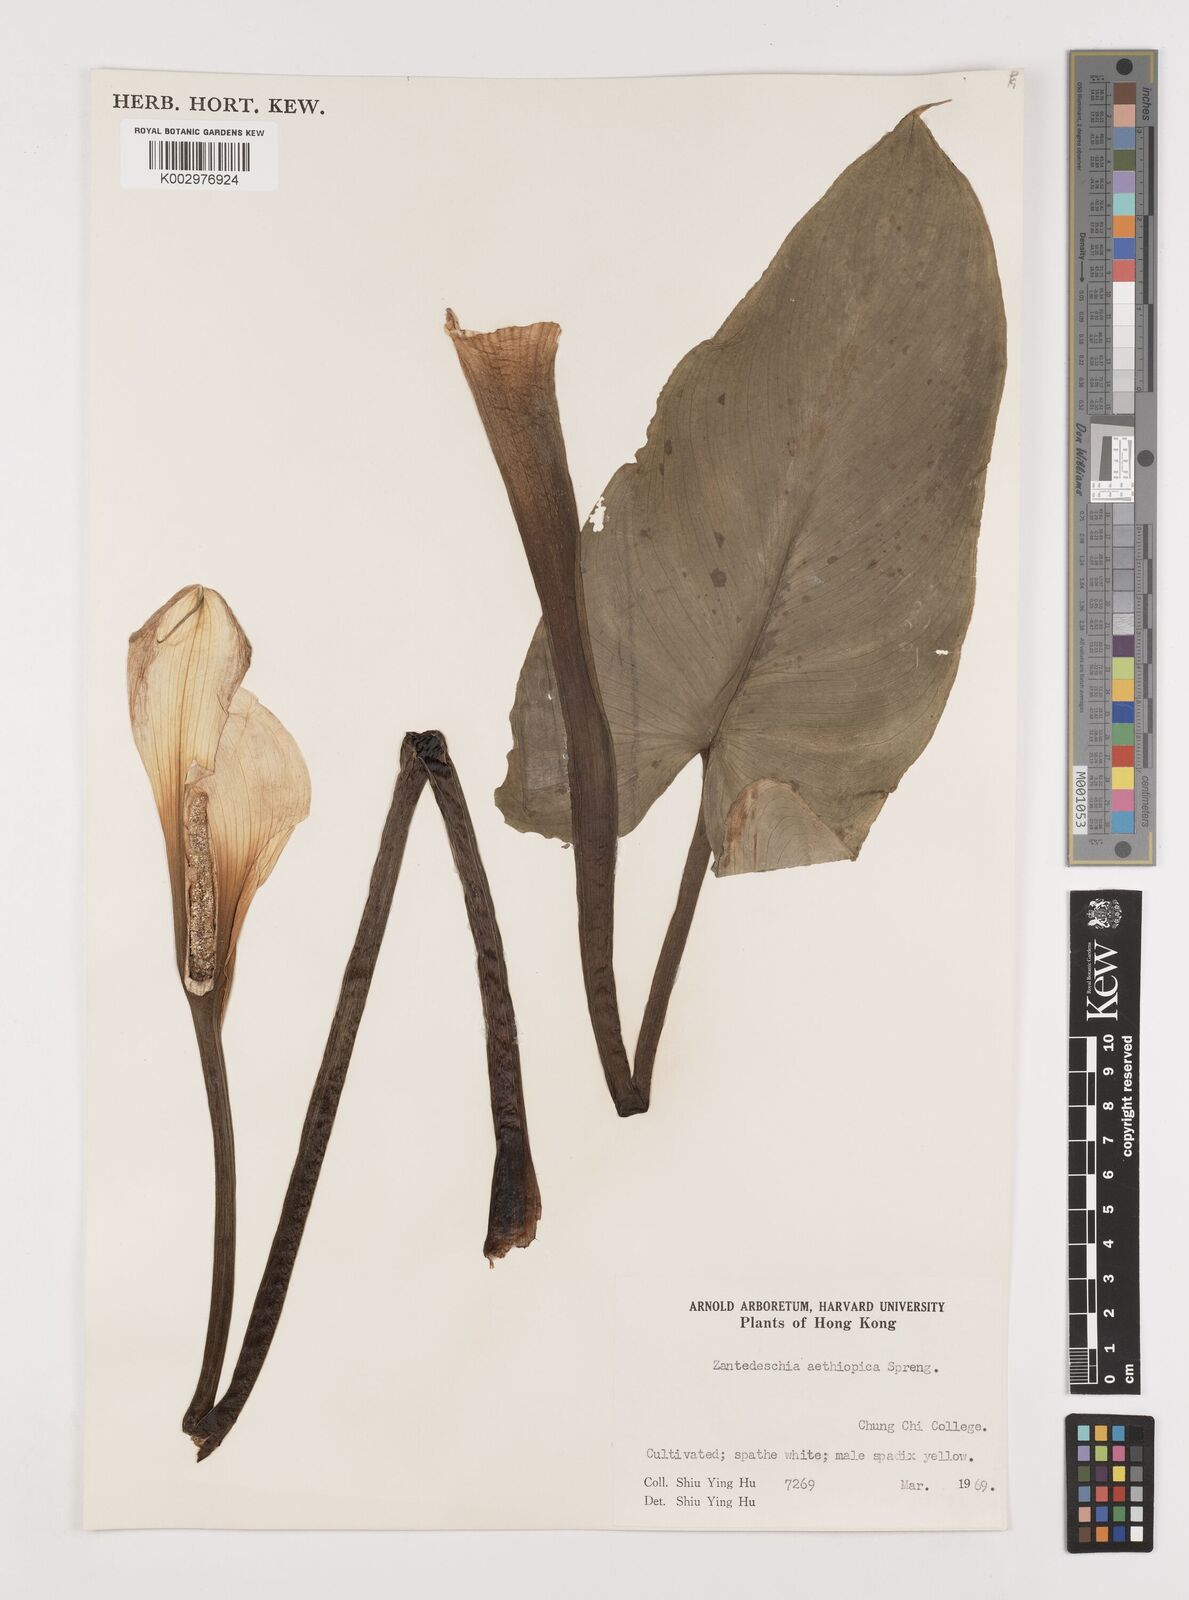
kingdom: Plantae
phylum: Tracheophyta
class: Liliopsida
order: Alismatales
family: Araceae
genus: Zantedeschia
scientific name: Zantedeschia aethiopica
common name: Altar-lily
